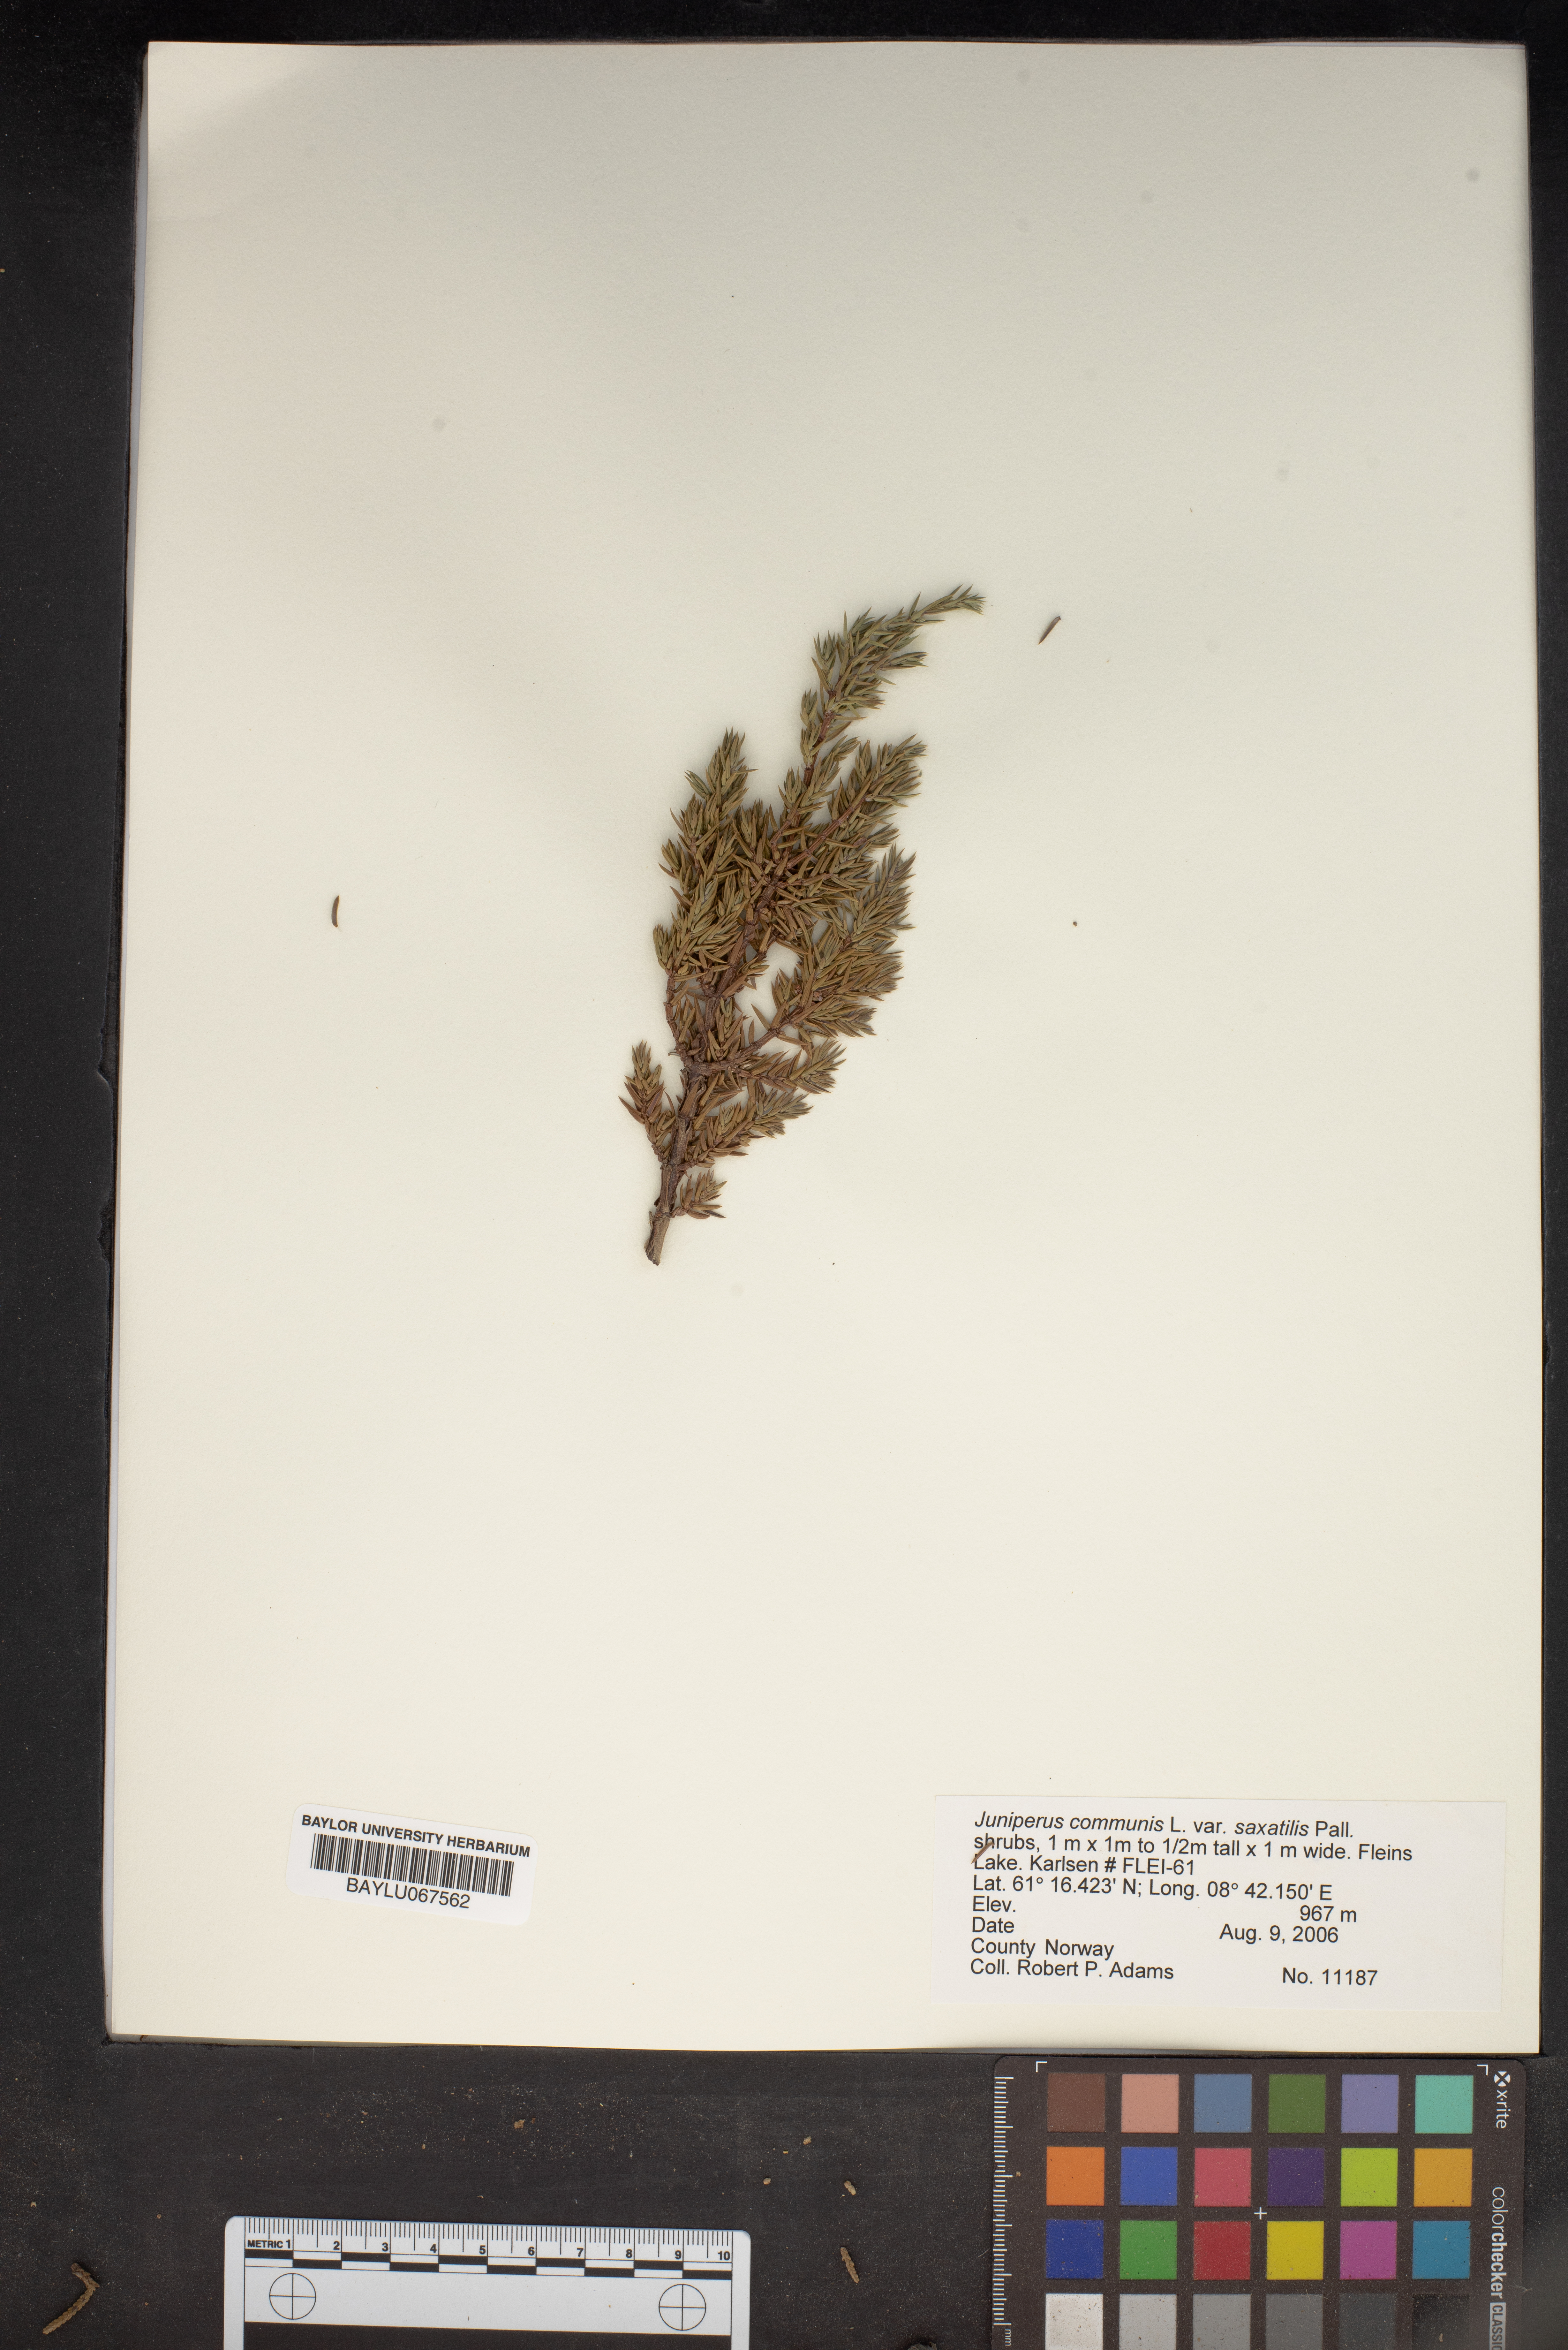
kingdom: Plantae
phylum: Tracheophyta
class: Pinopsida
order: Pinales
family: Cupressaceae
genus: Juniperus
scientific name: Juniperus communis
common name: Common juniper
